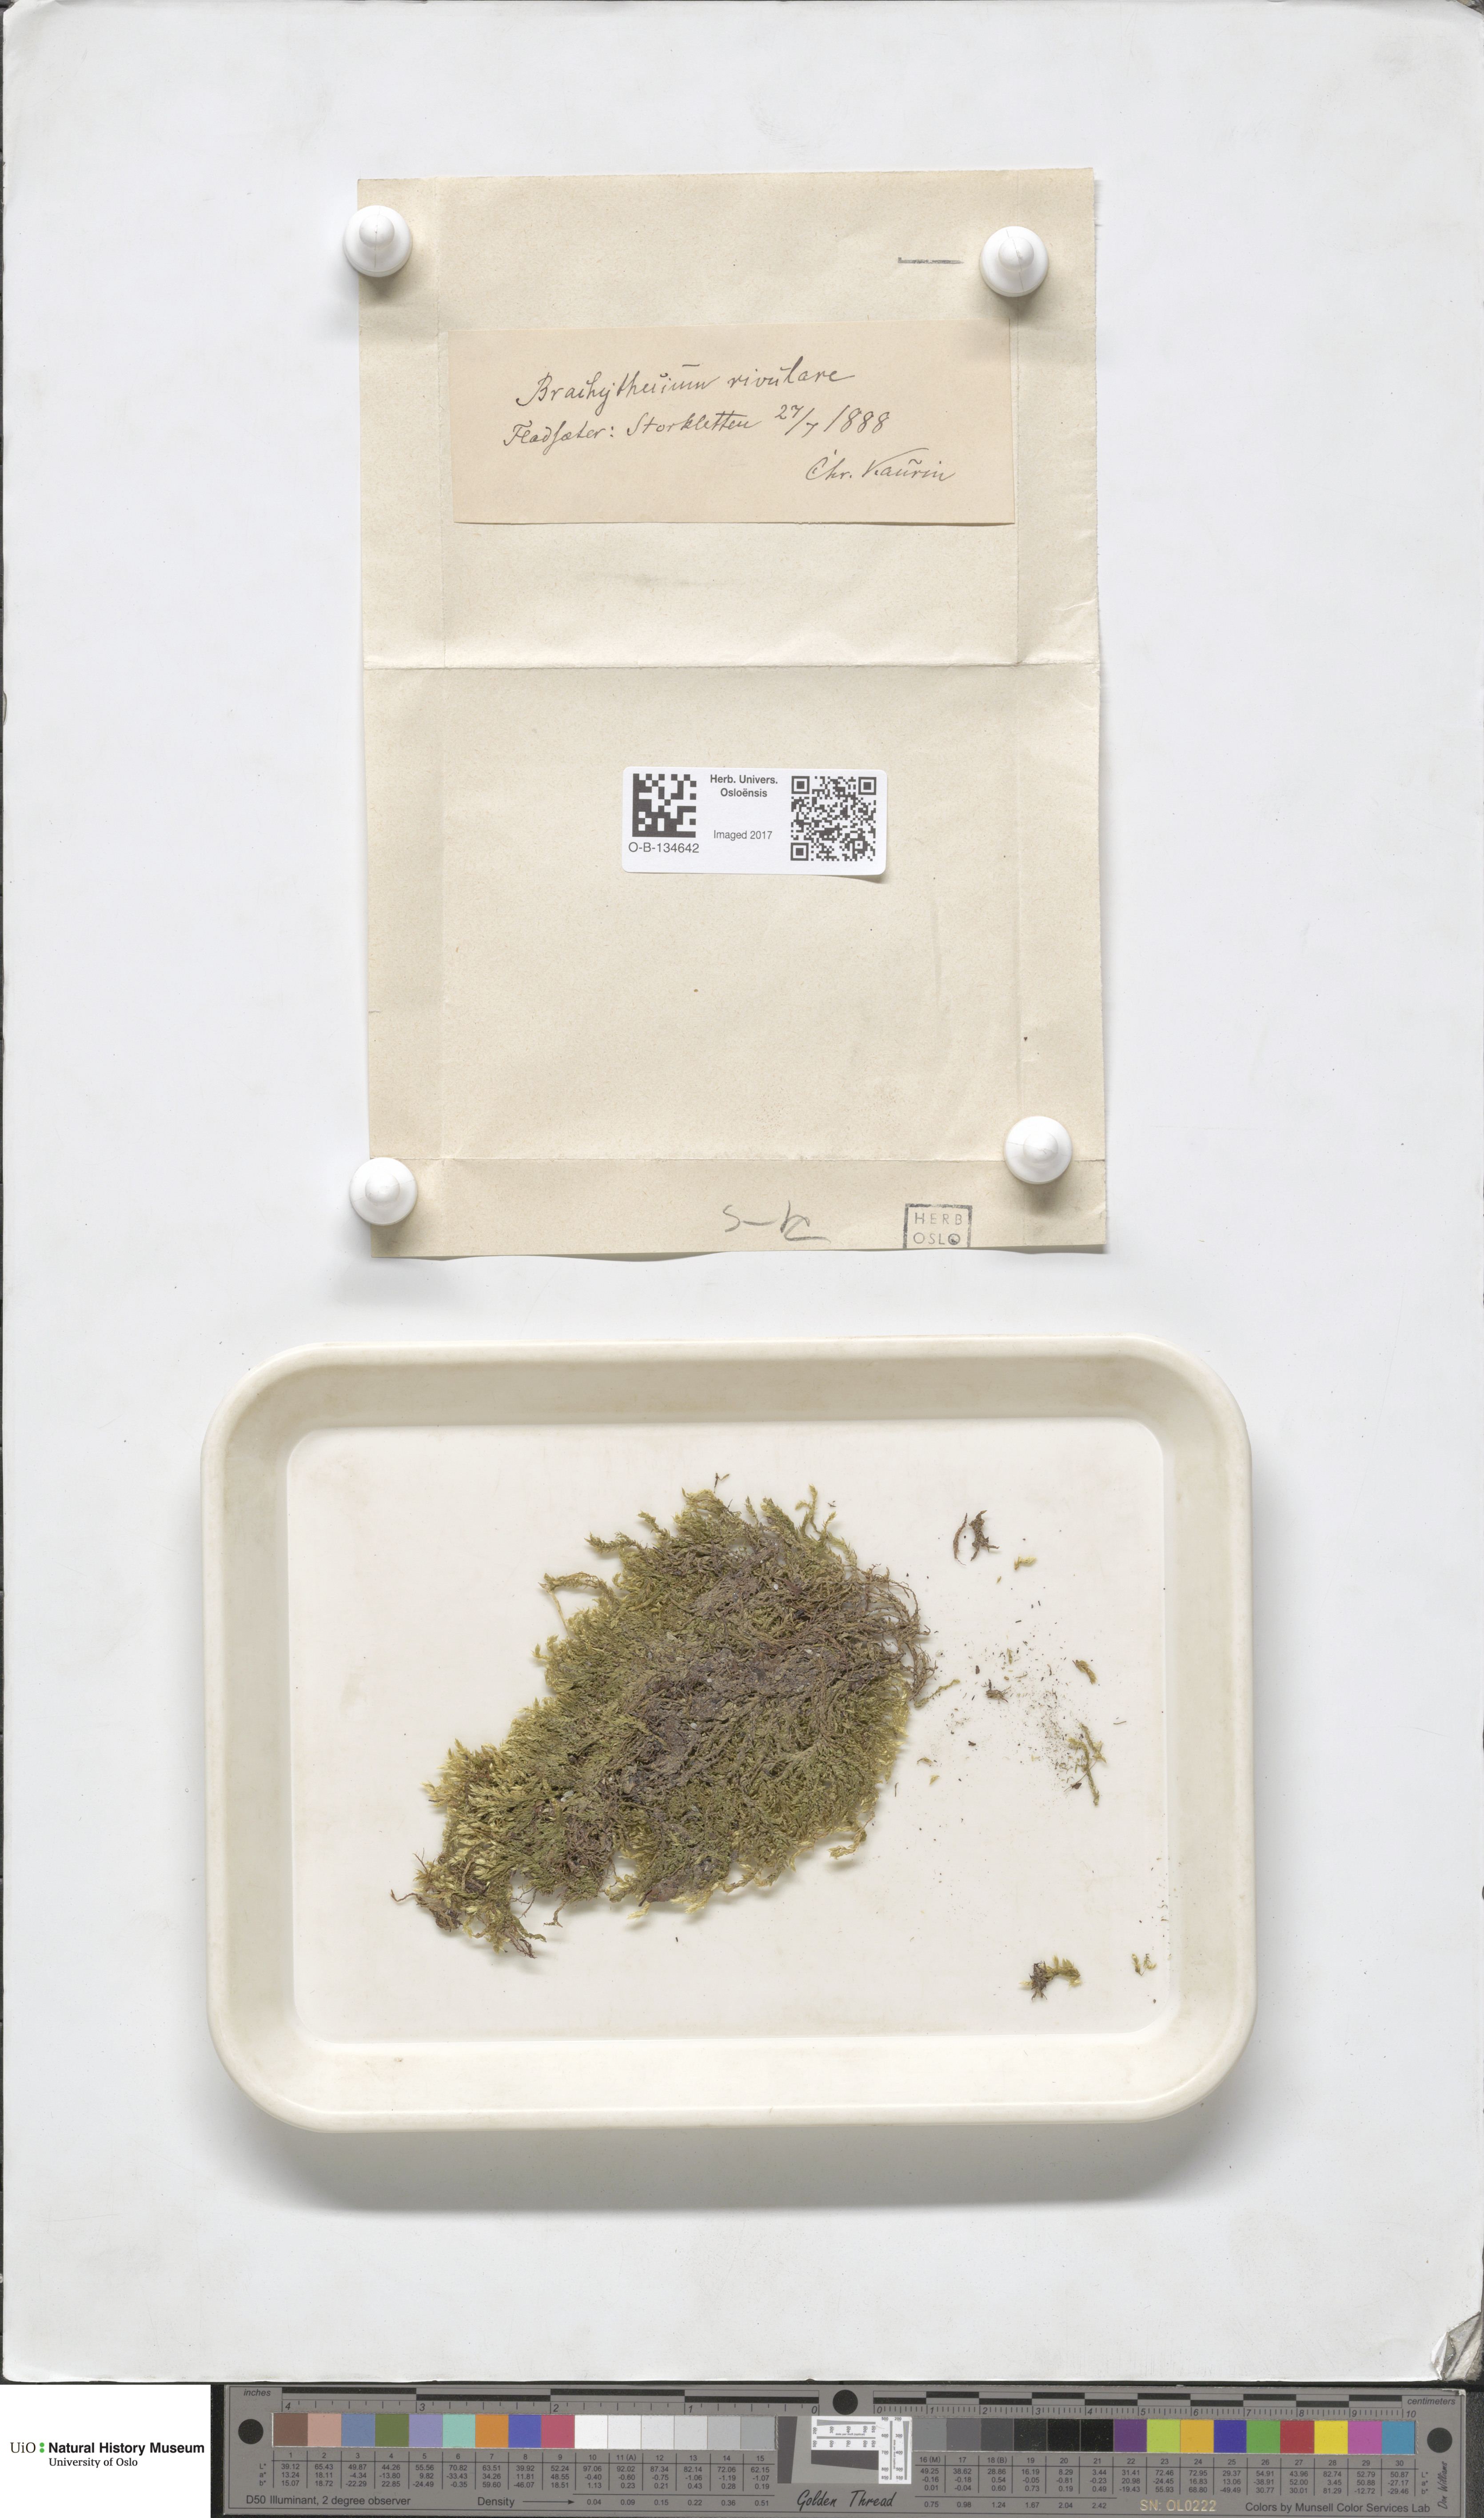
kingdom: Plantae
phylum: Bryophyta
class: Bryopsida
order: Hypnales
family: Brachytheciaceae
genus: Brachythecium
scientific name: Brachythecium rivulare
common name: River ragged moss
